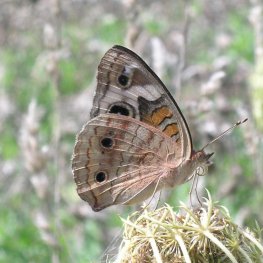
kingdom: Animalia
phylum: Arthropoda
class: Insecta
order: Lepidoptera
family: Nymphalidae
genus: Junonia
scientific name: Junonia coenia
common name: Common Buckeye
